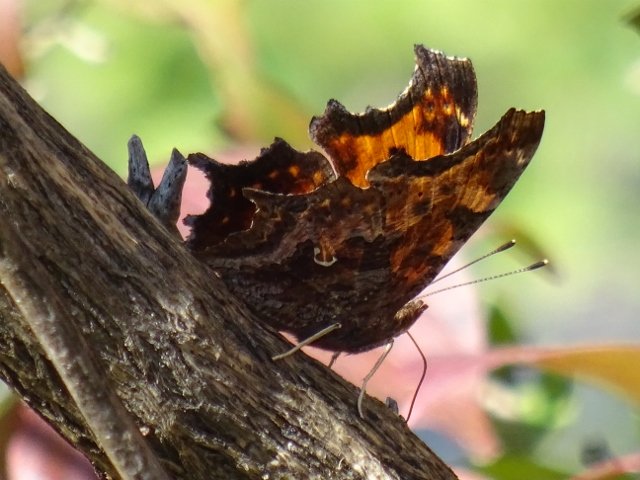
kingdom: Animalia
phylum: Arthropoda
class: Insecta
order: Lepidoptera
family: Nymphalidae
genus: Polygonia
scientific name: Polygonia comma
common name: Eastern Comma
